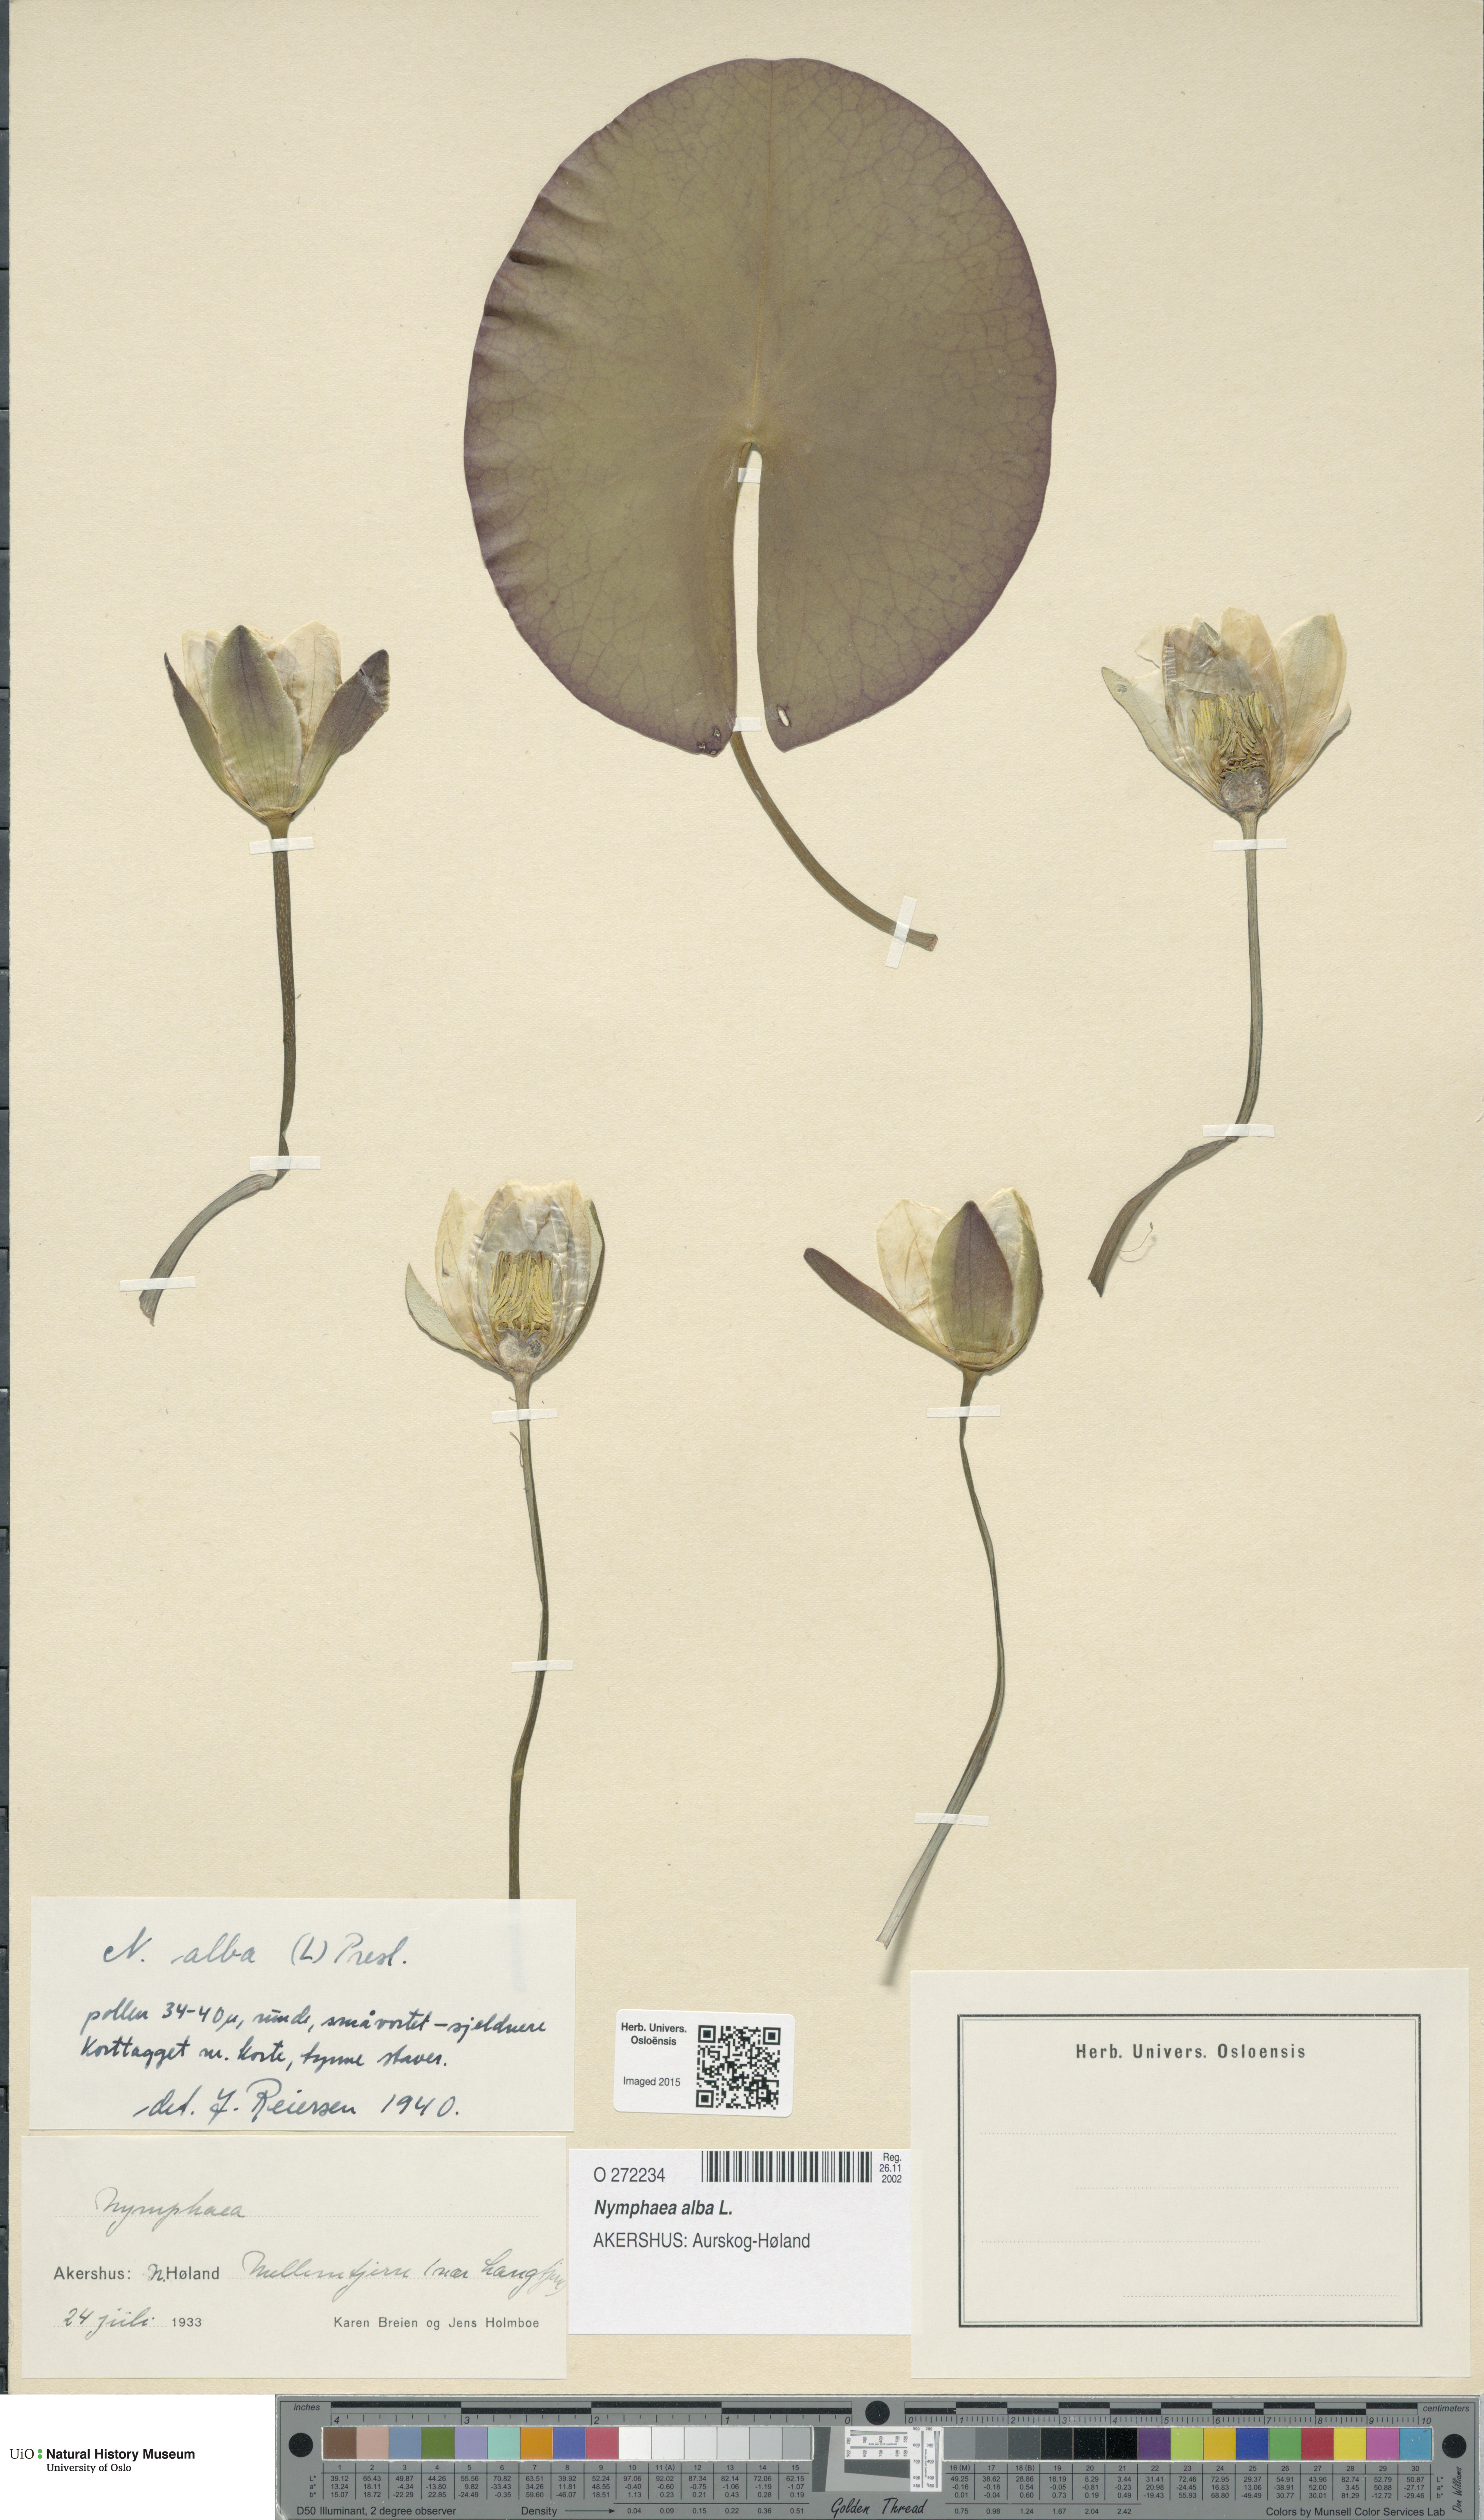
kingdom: Plantae
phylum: Tracheophyta
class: Magnoliopsida
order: Nymphaeales
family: Nymphaeaceae
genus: Nymphaea
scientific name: Nymphaea alba
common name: White water-lily
